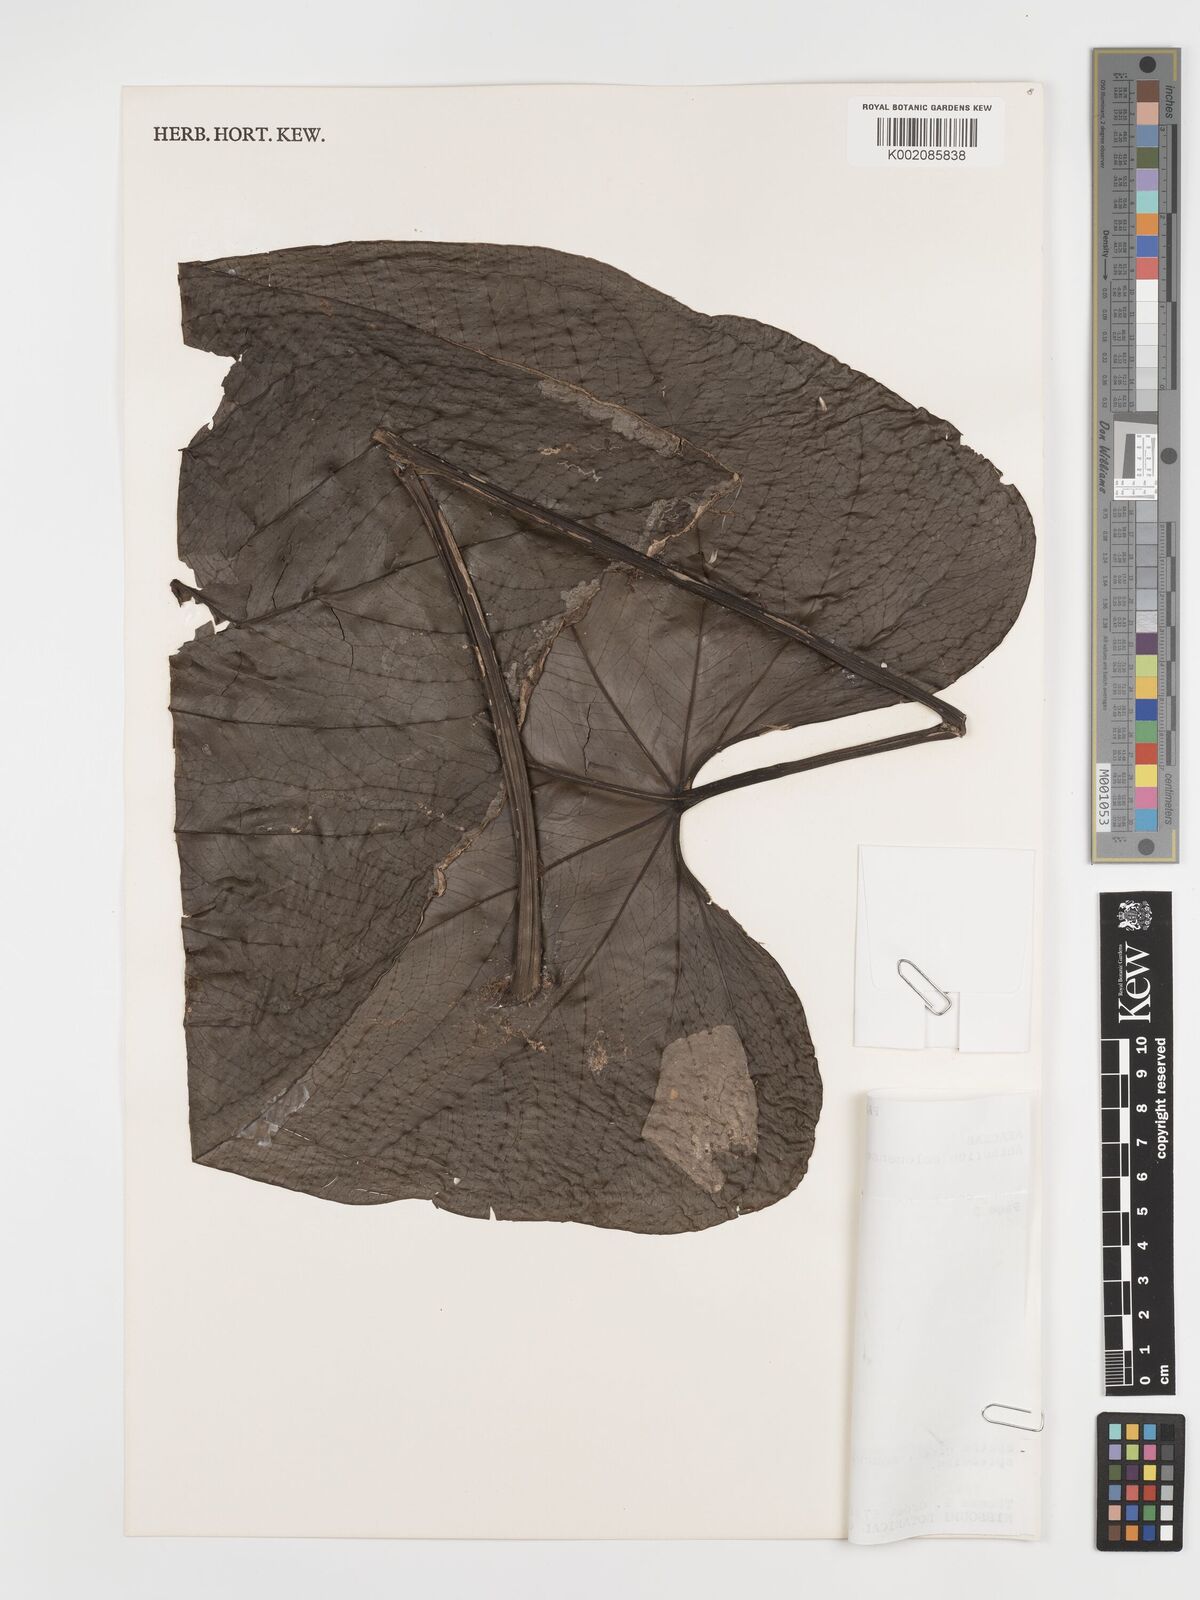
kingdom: Plantae
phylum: Tracheophyta
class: Liliopsida
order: Alismatales
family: Araceae
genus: Anthurium
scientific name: Anthurium colonense
